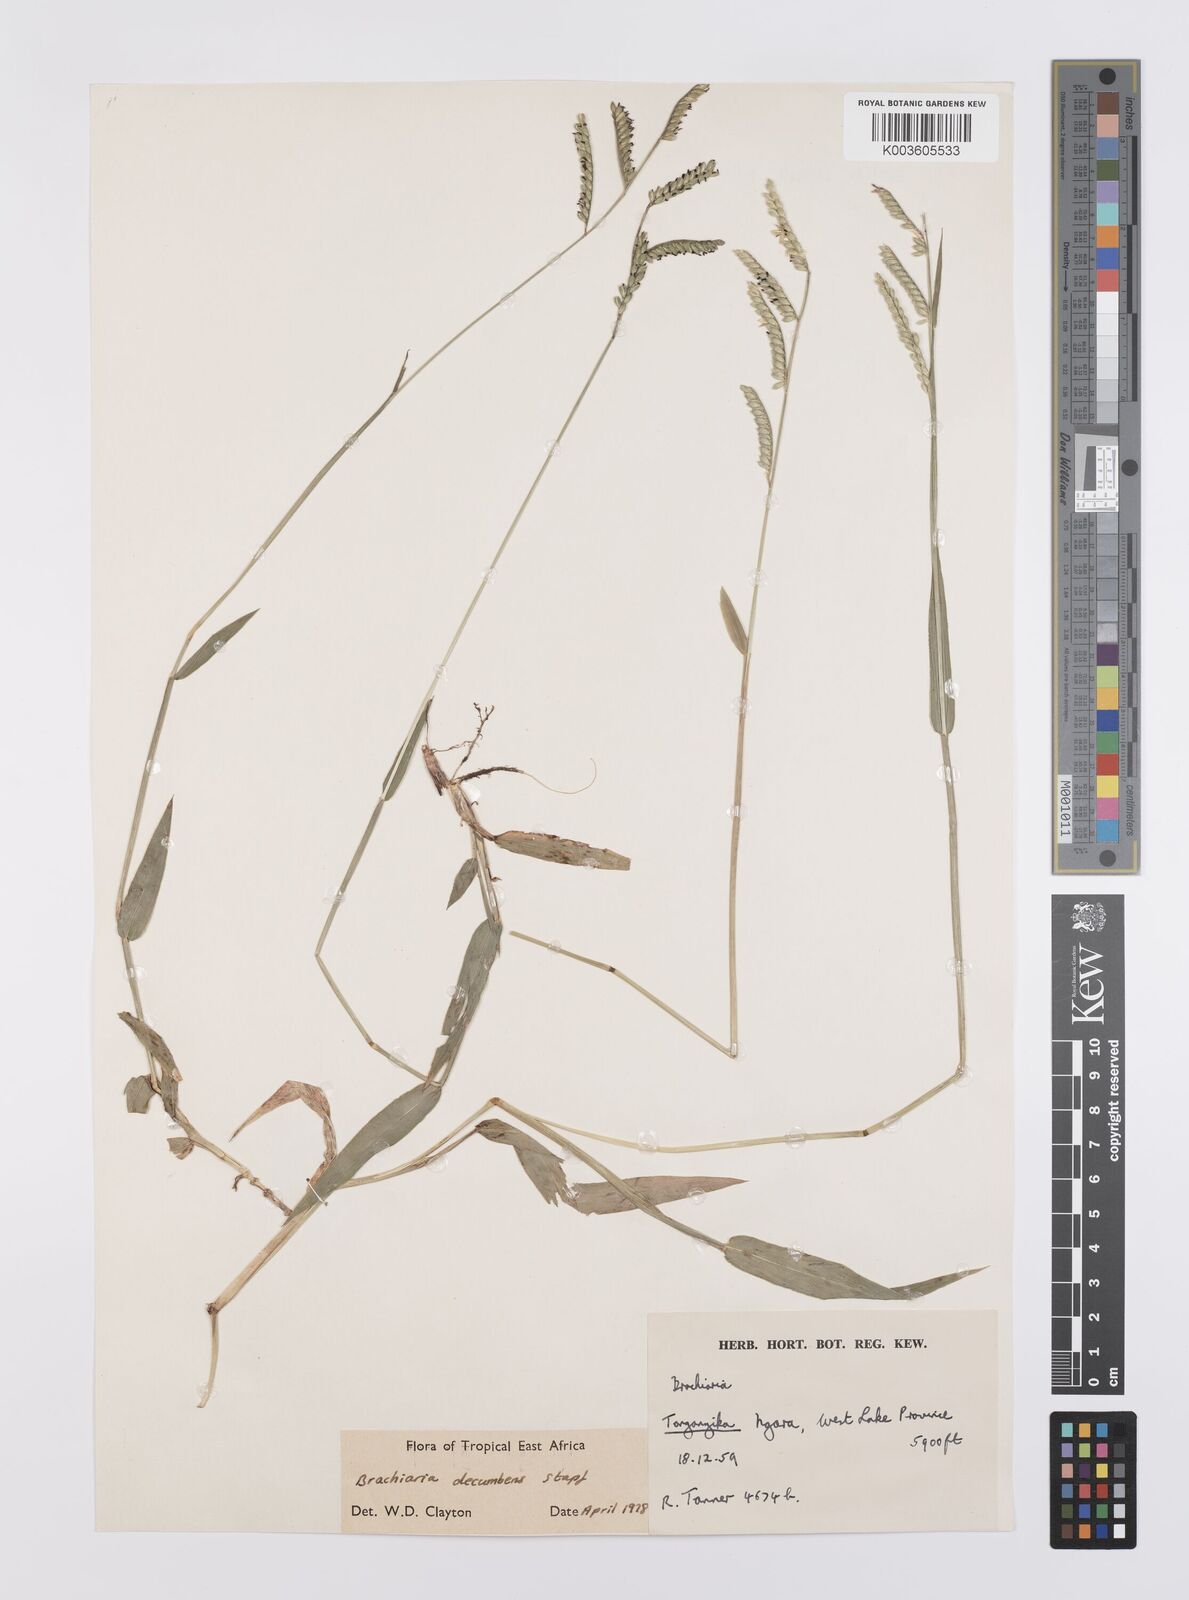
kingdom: Plantae
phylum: Tracheophyta
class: Liliopsida
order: Poales
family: Poaceae
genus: Urochloa
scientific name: Urochloa eminii
